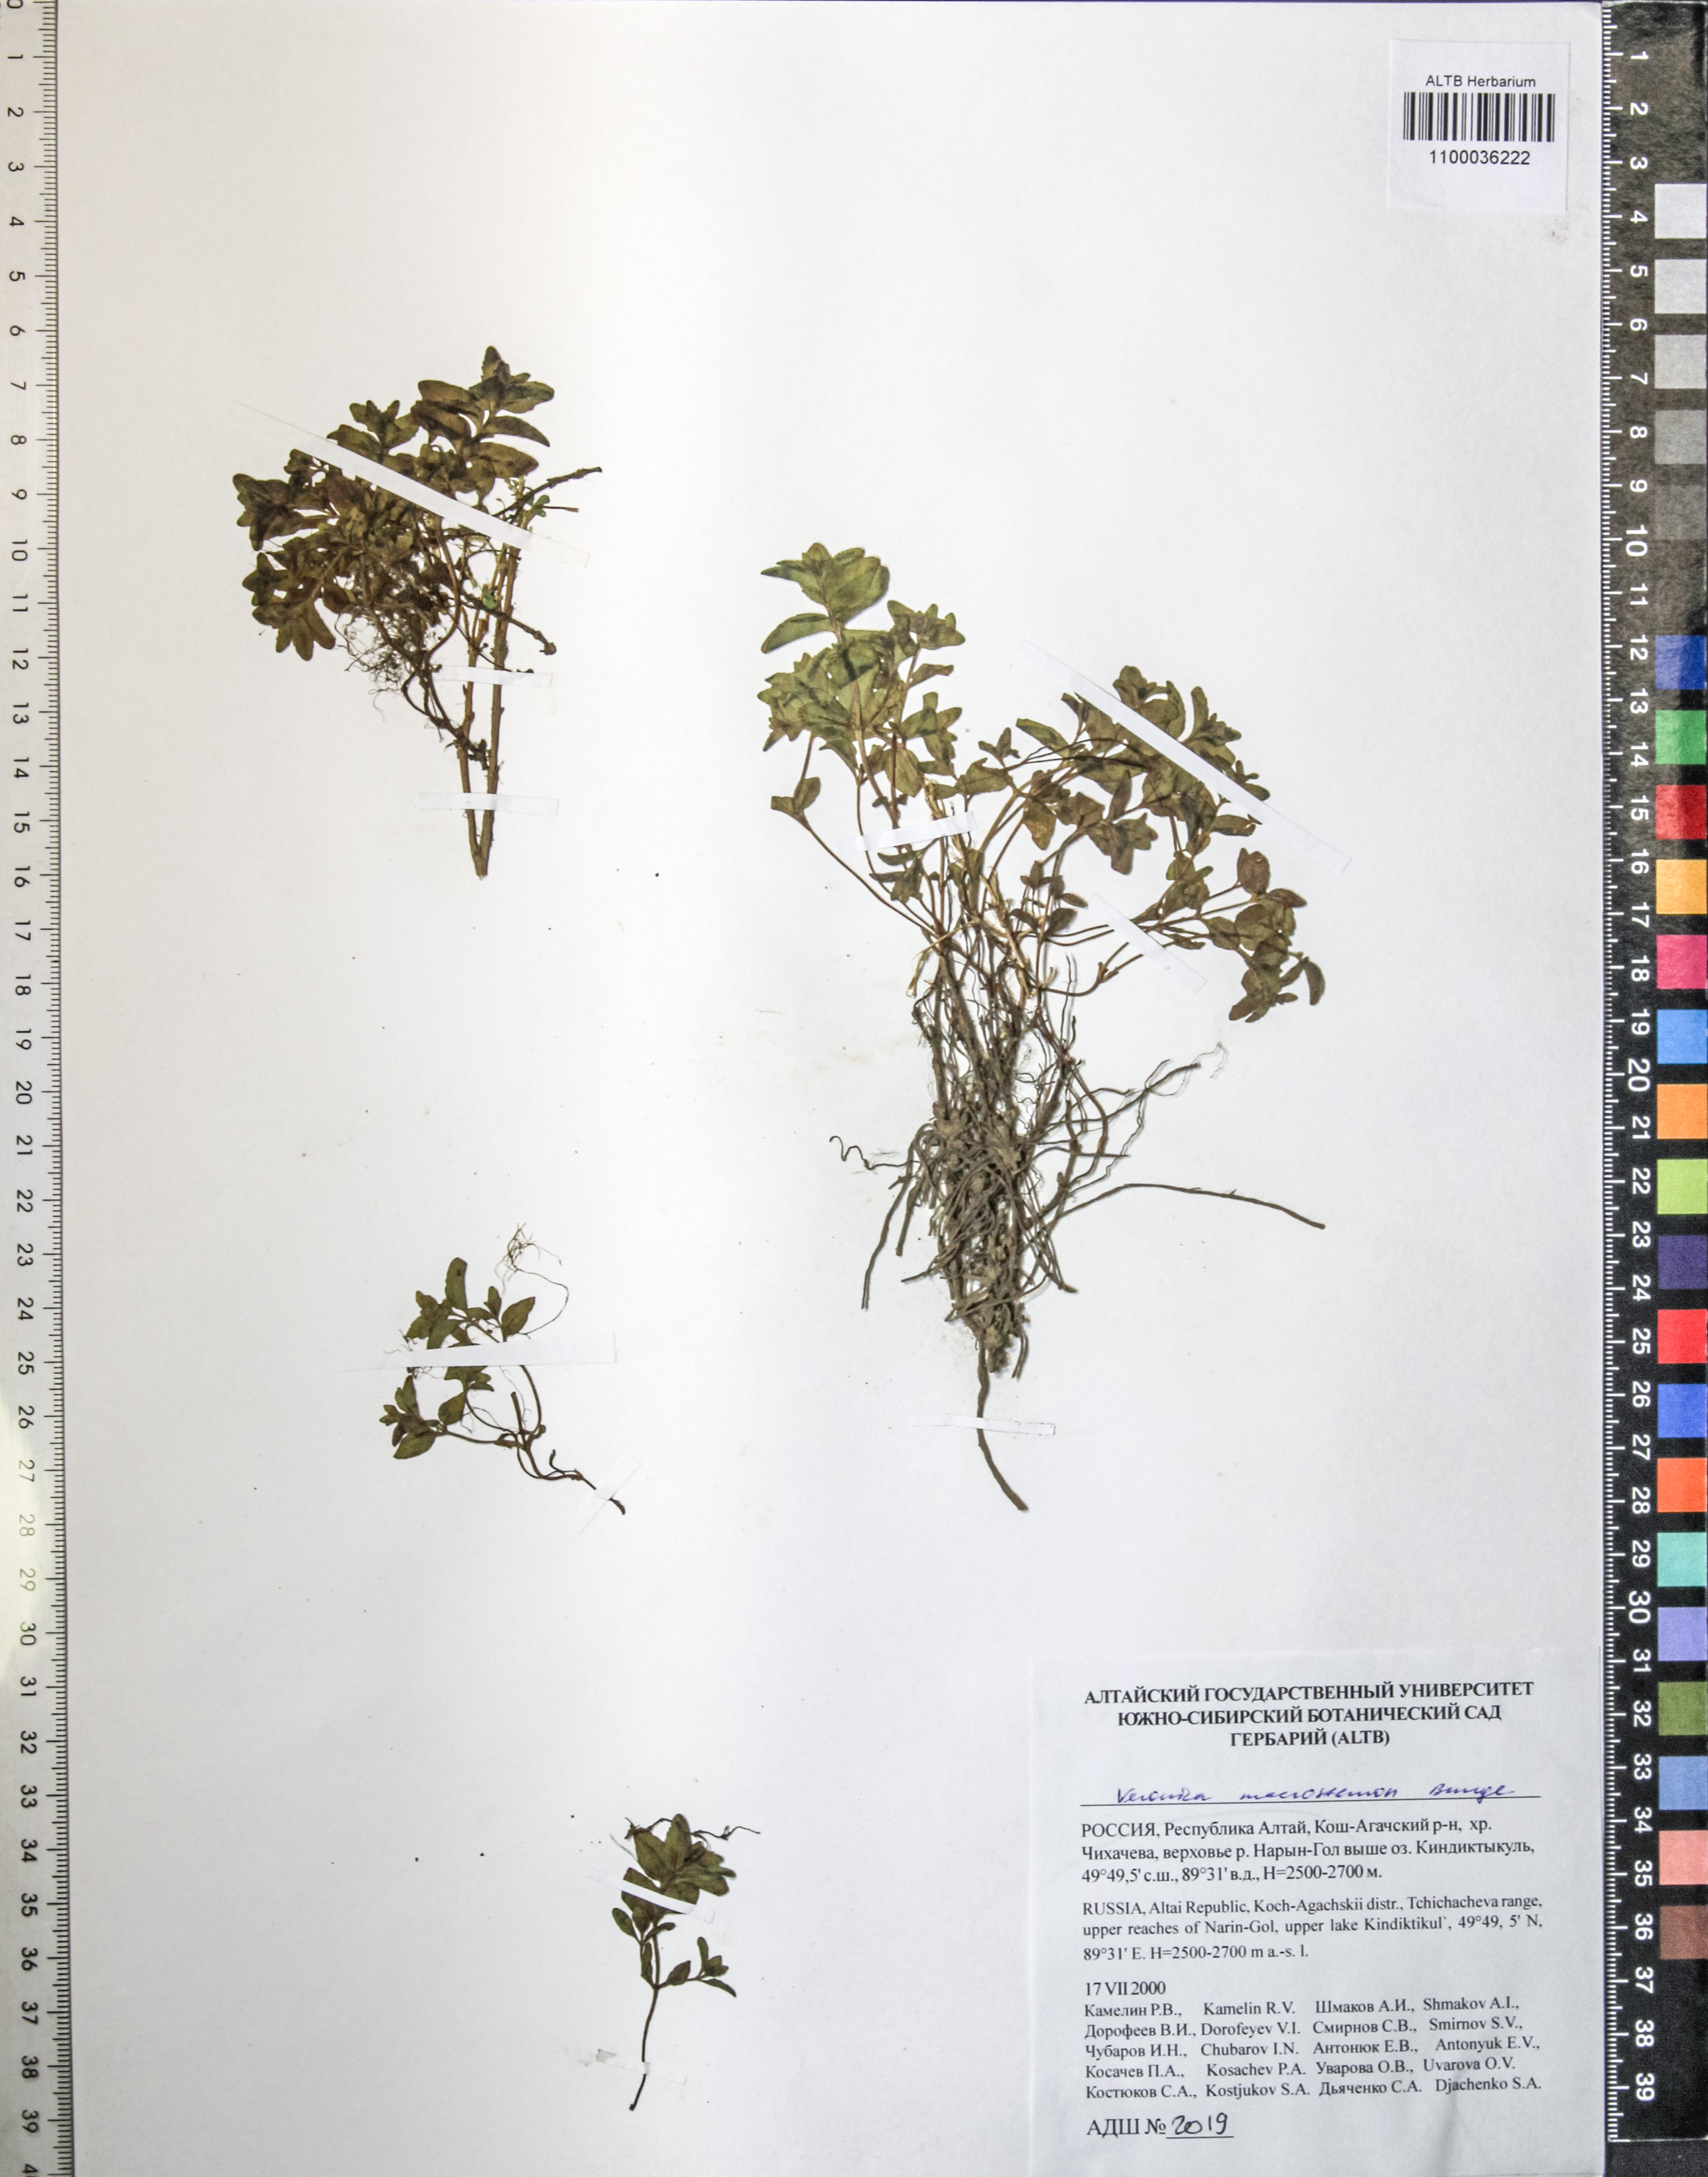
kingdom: Plantae
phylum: Tracheophyta
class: Magnoliopsida
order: Lamiales
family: Plantaginaceae
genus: Veronica
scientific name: Veronica macrostemon
